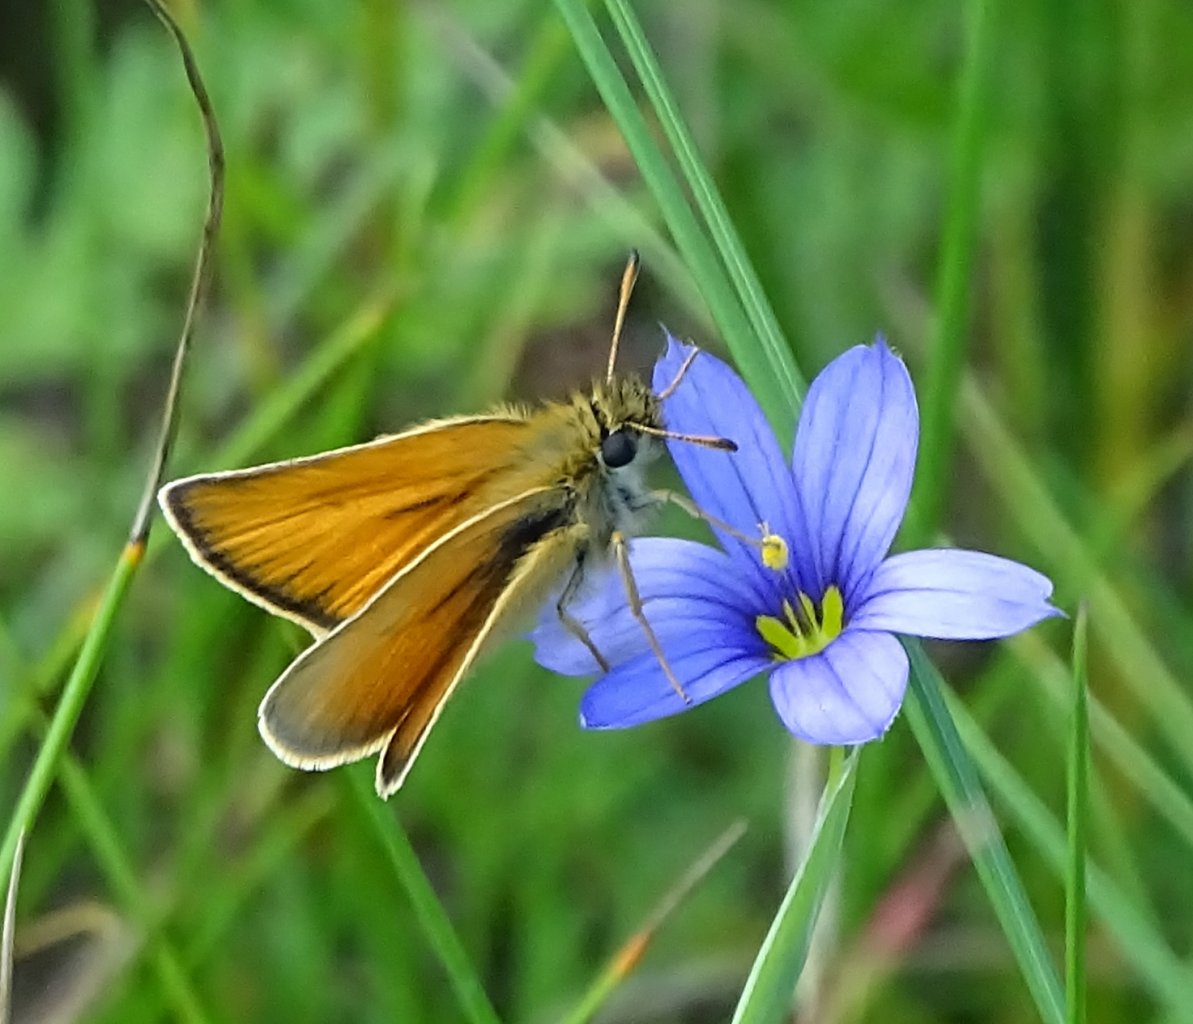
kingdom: Animalia
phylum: Arthropoda
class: Insecta
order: Lepidoptera
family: Hesperiidae
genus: Ancyloxypha
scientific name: Ancyloxypha numitor
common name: Least Skipper
